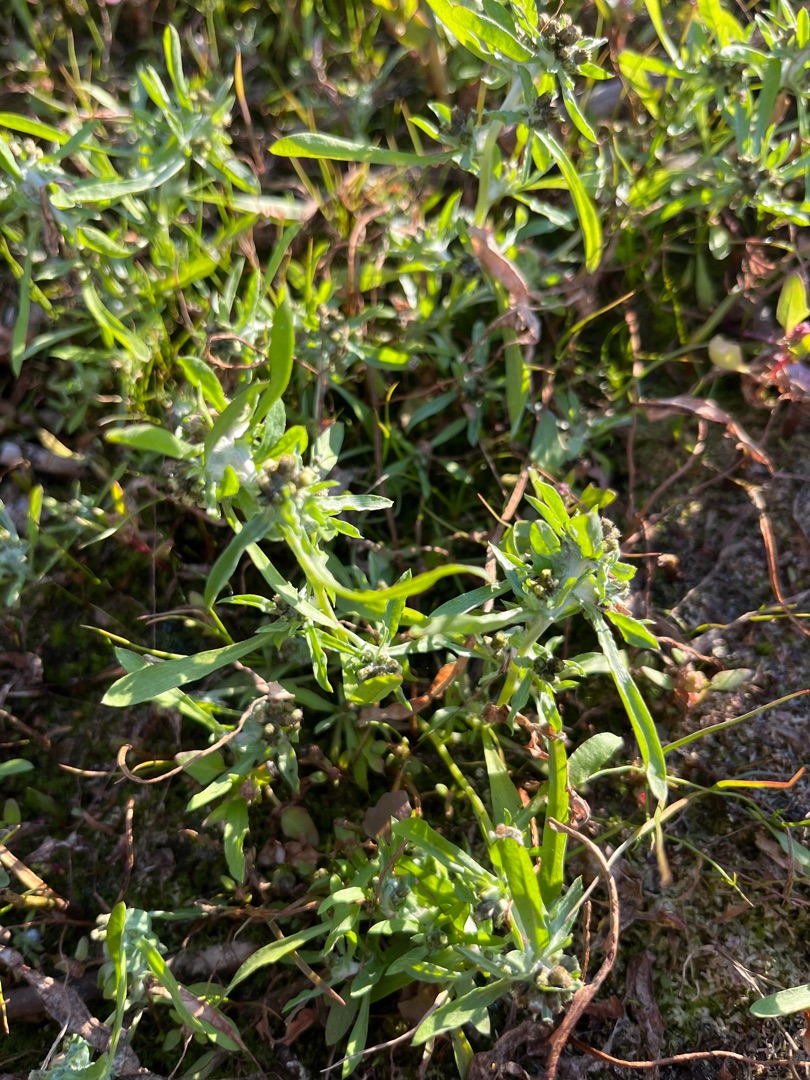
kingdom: Plantae
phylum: Tracheophyta
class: Magnoliopsida
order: Asterales
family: Asteraceae
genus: Gnaphalium
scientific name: Gnaphalium uliginosum
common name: Sump-evighedsblomst
